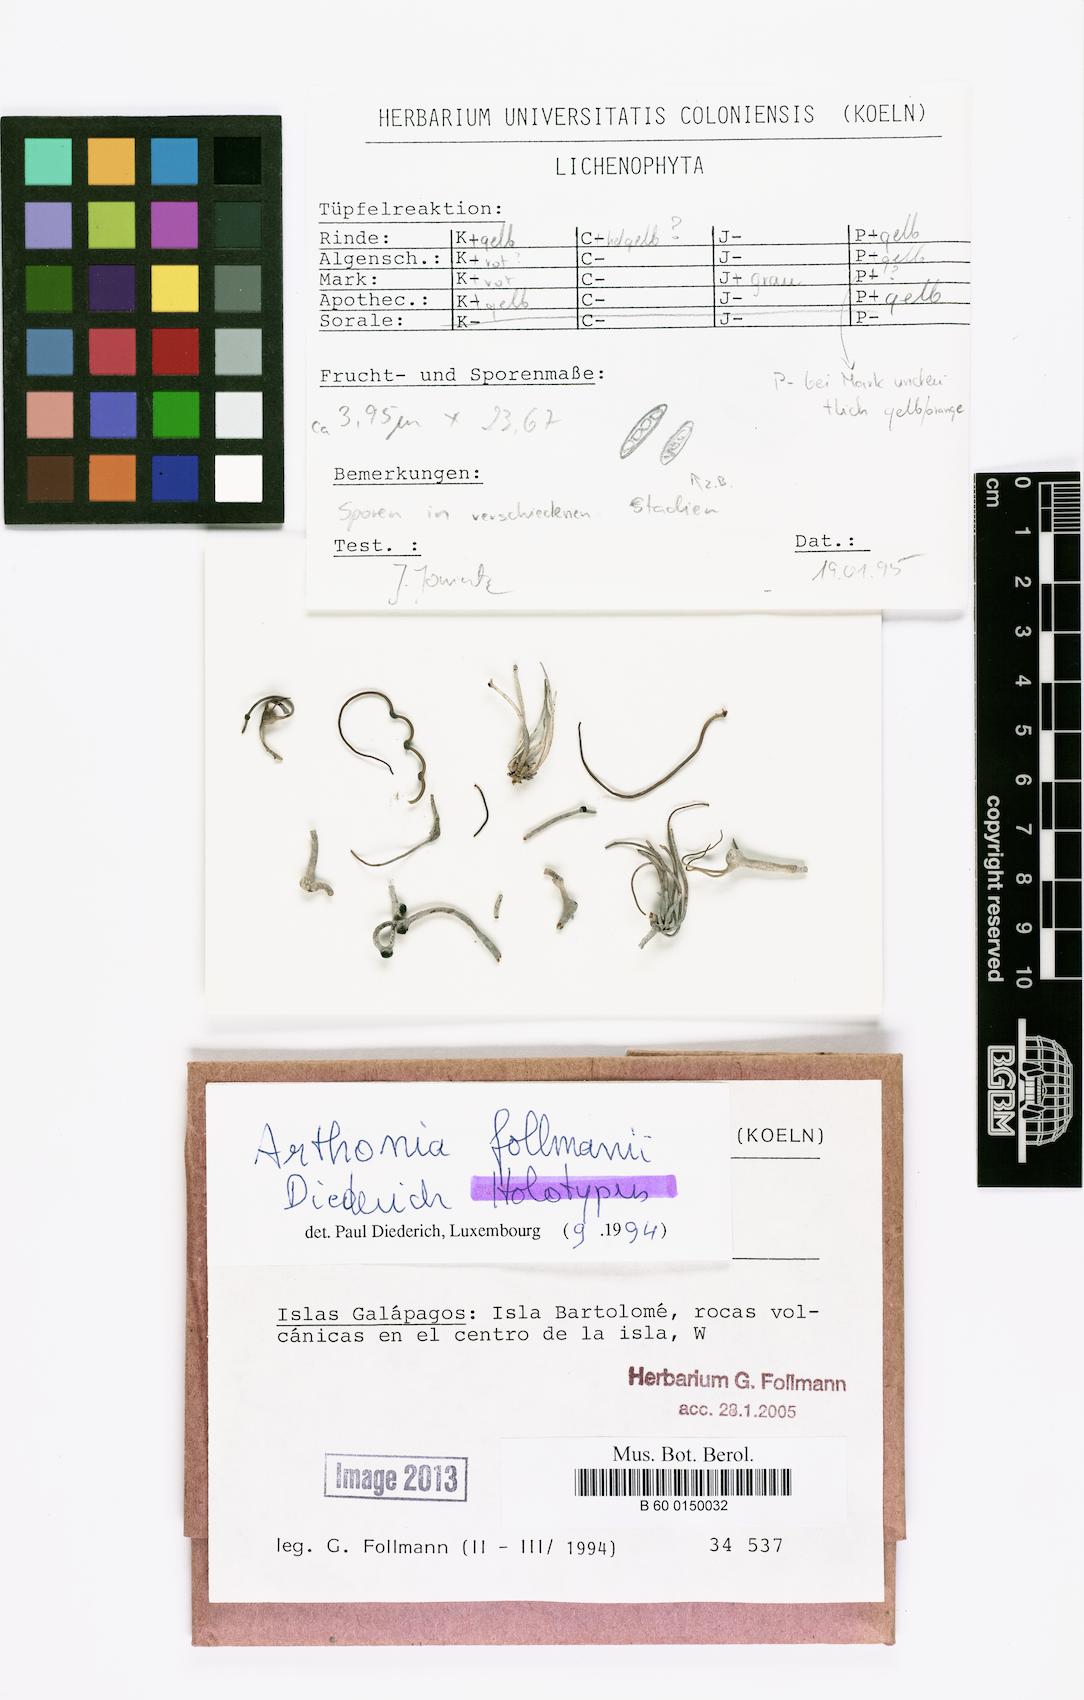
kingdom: Fungi
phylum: Ascomycota
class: Arthoniomycetes
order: Arthoniales
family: Arthoniaceae
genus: Arthonia
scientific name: Arthonia
